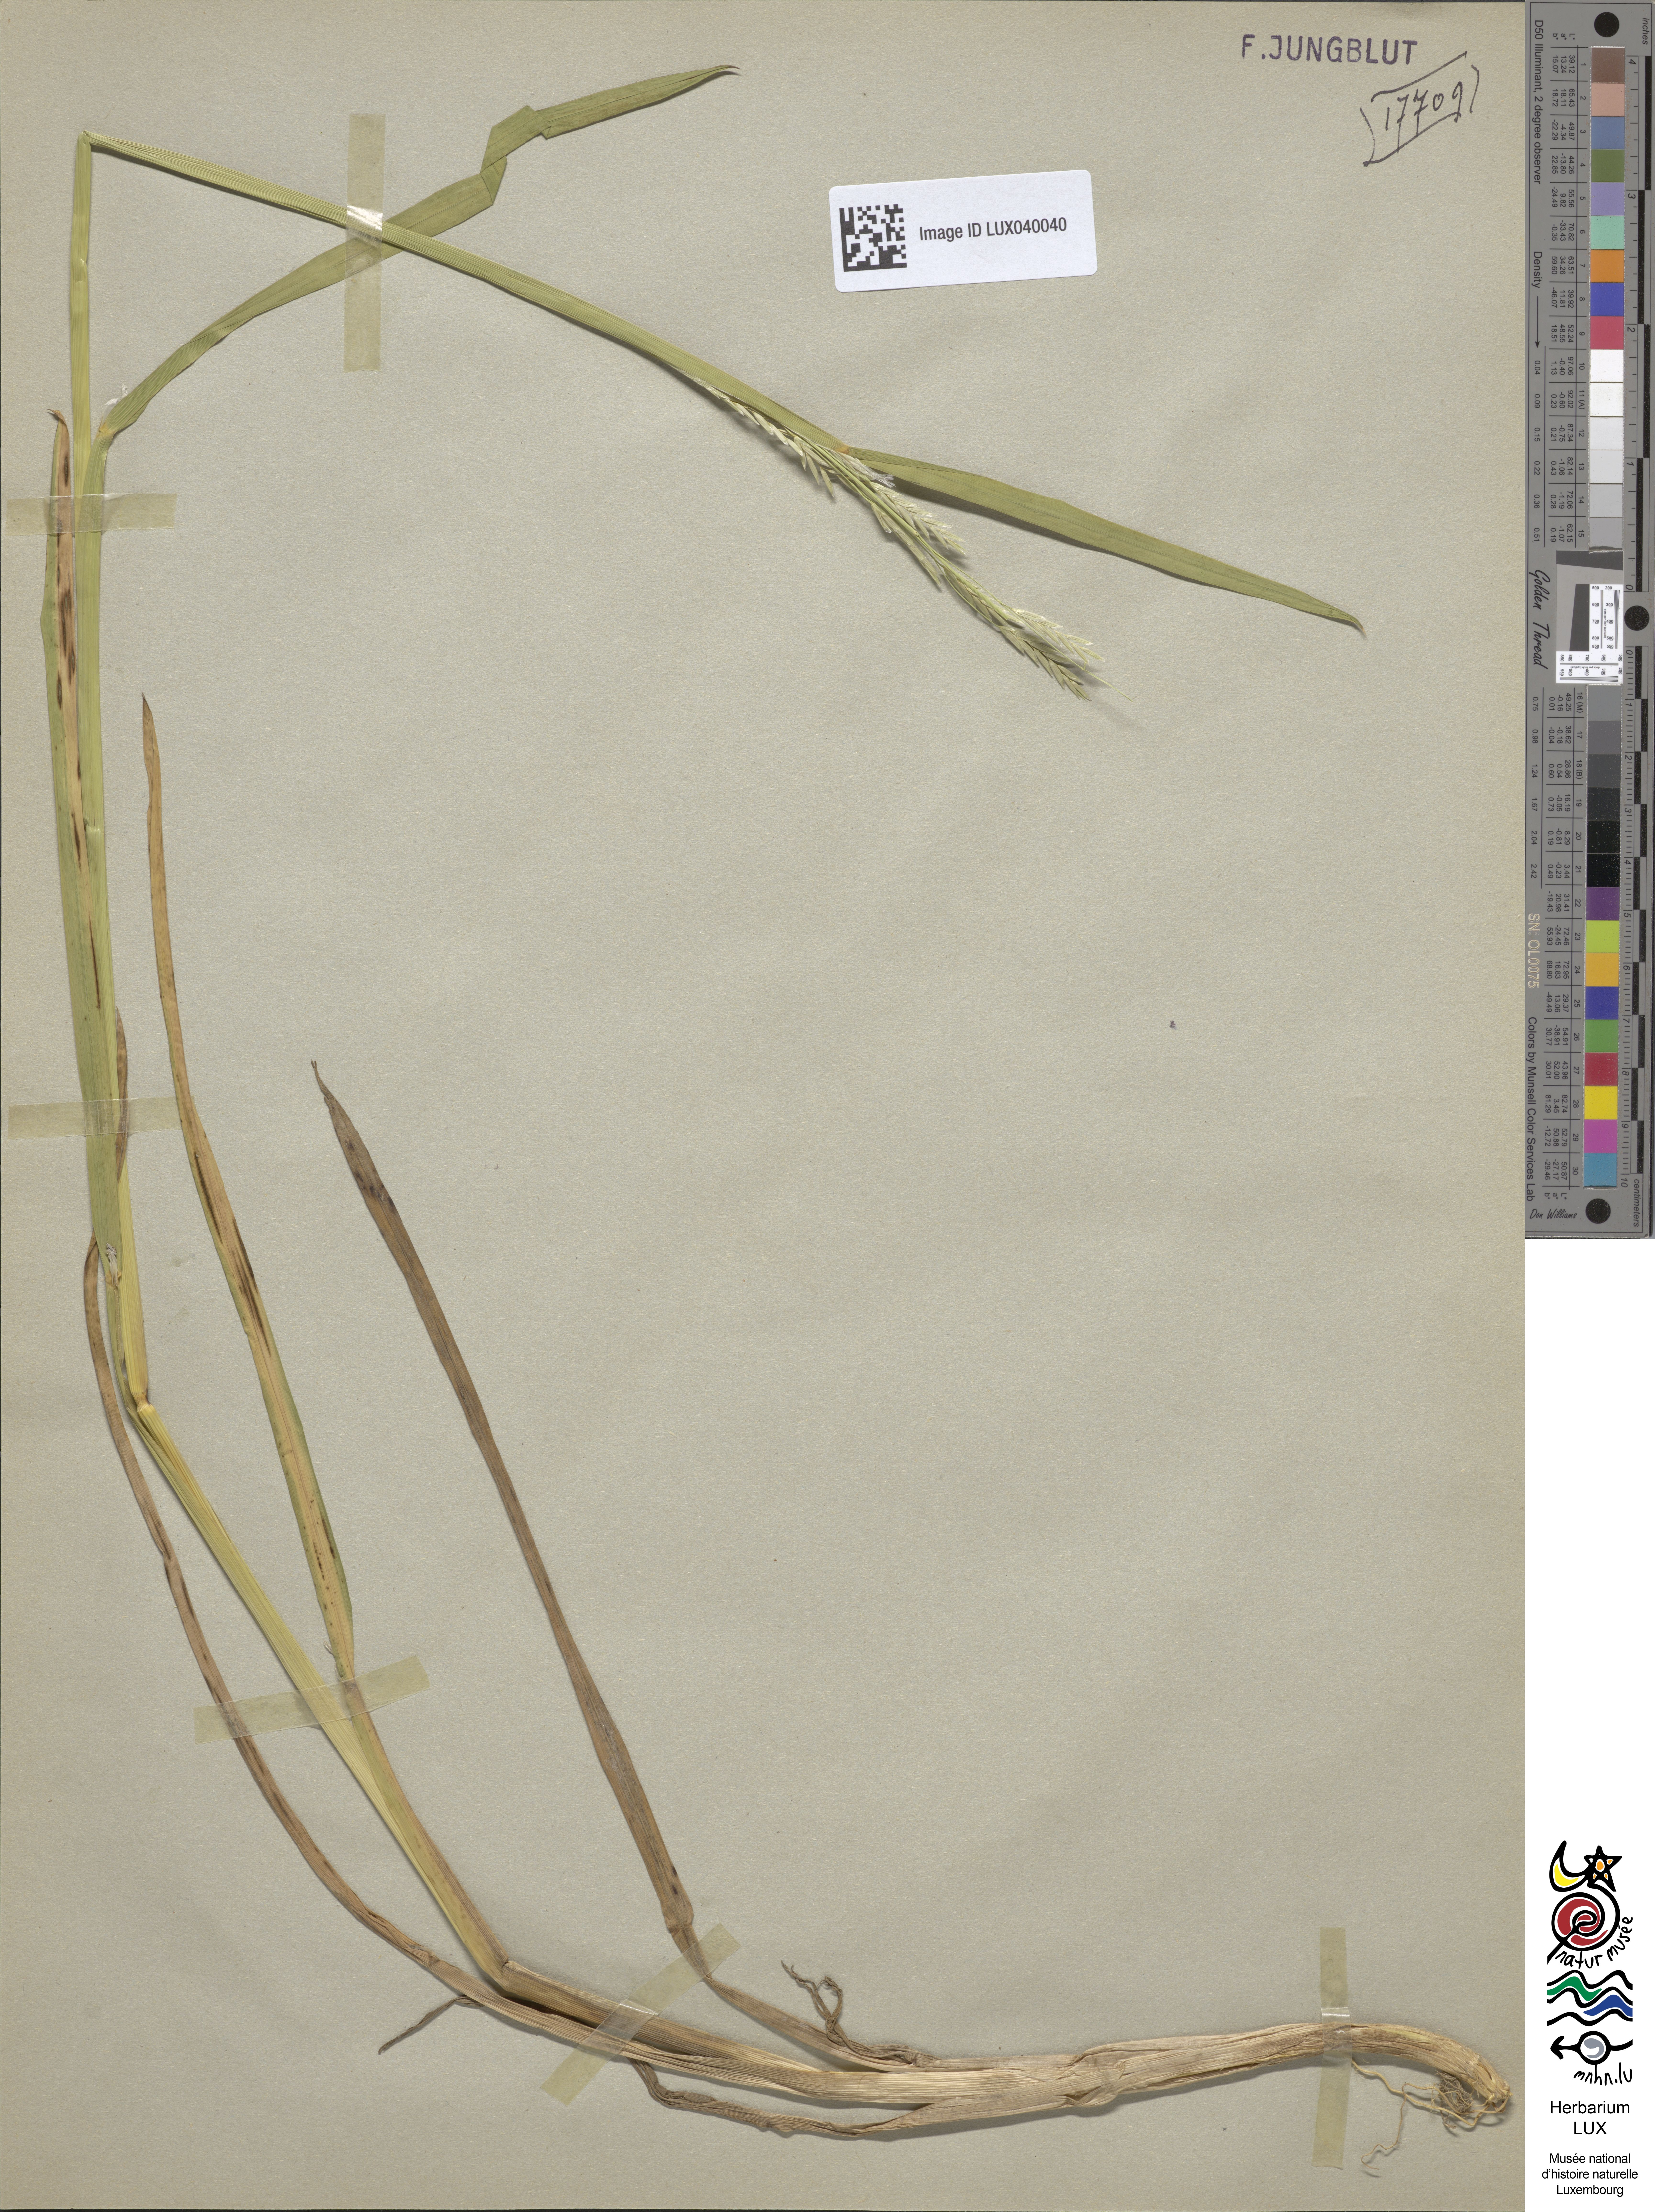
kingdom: Plantae
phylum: Tracheophyta
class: Liliopsida
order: Poales
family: Poaceae
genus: Glyceria
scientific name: Glyceria declinata
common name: Small sweet-grass
